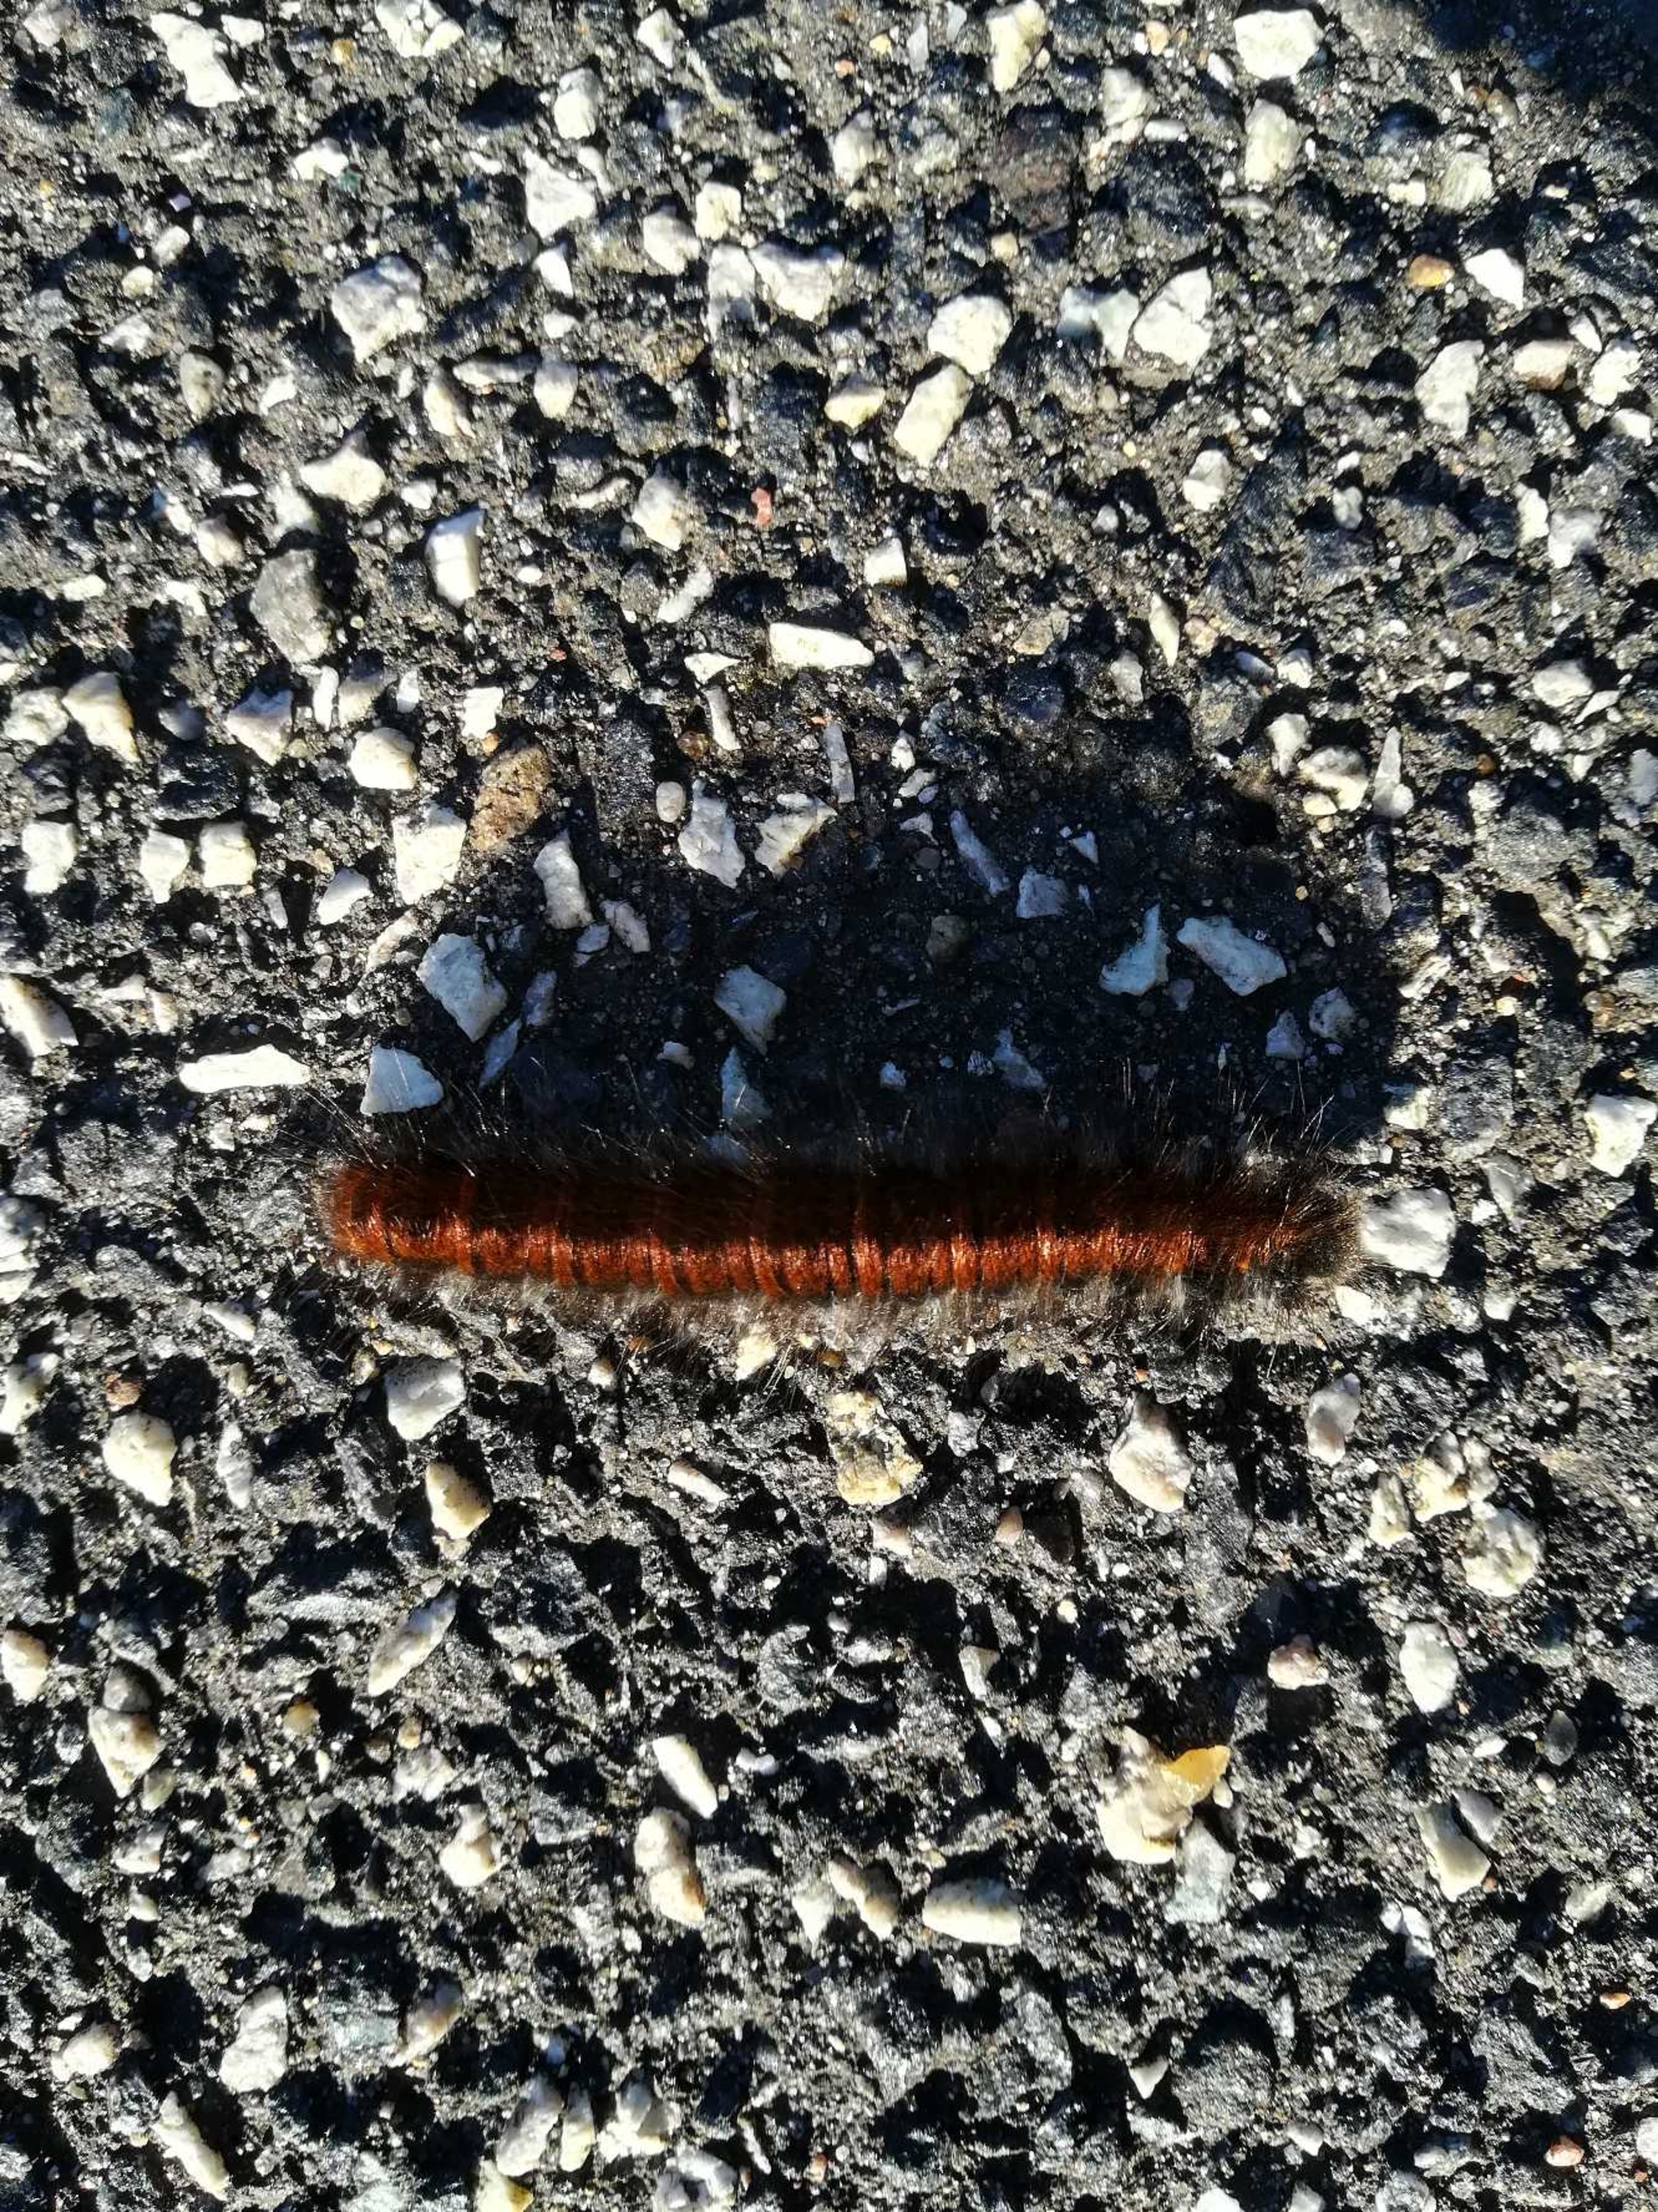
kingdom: Animalia
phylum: Arthropoda
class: Insecta
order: Lepidoptera
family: Lasiocampidae
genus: Macrothylacia
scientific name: Macrothylacia rubi
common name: Brombærspinder
